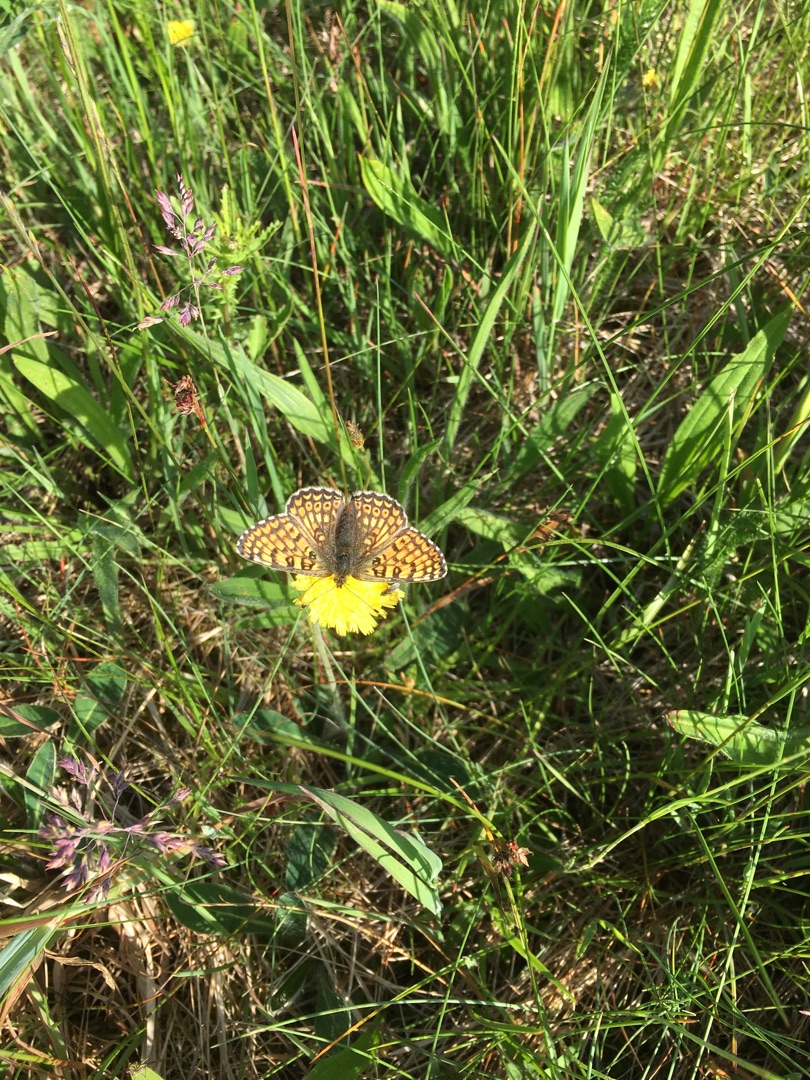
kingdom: Animalia
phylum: Arthropoda
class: Insecta
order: Lepidoptera
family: Nymphalidae
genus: Melitaea
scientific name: Melitaea cinxia
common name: Okkergul pletvinge
